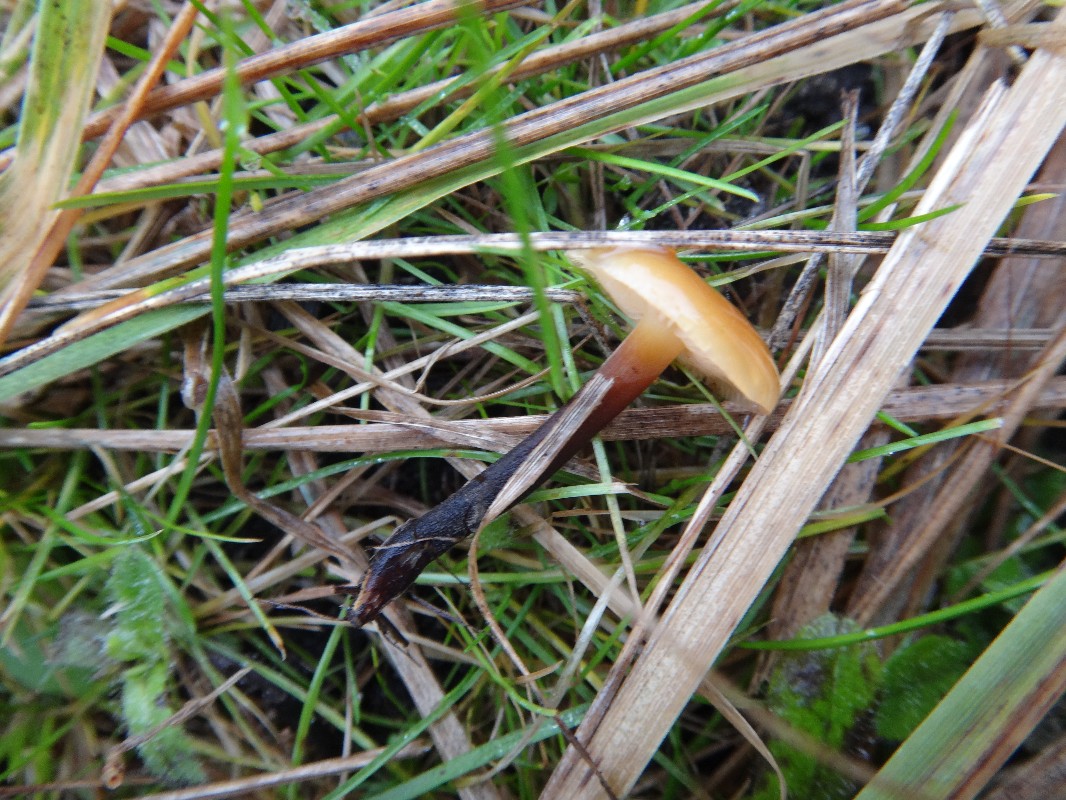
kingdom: Fungi
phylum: Basidiomycota
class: Agaricomycetes
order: Agaricales
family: Physalacriaceae
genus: Flammulina
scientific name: Flammulina elastica
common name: pile-fløjlsfod
